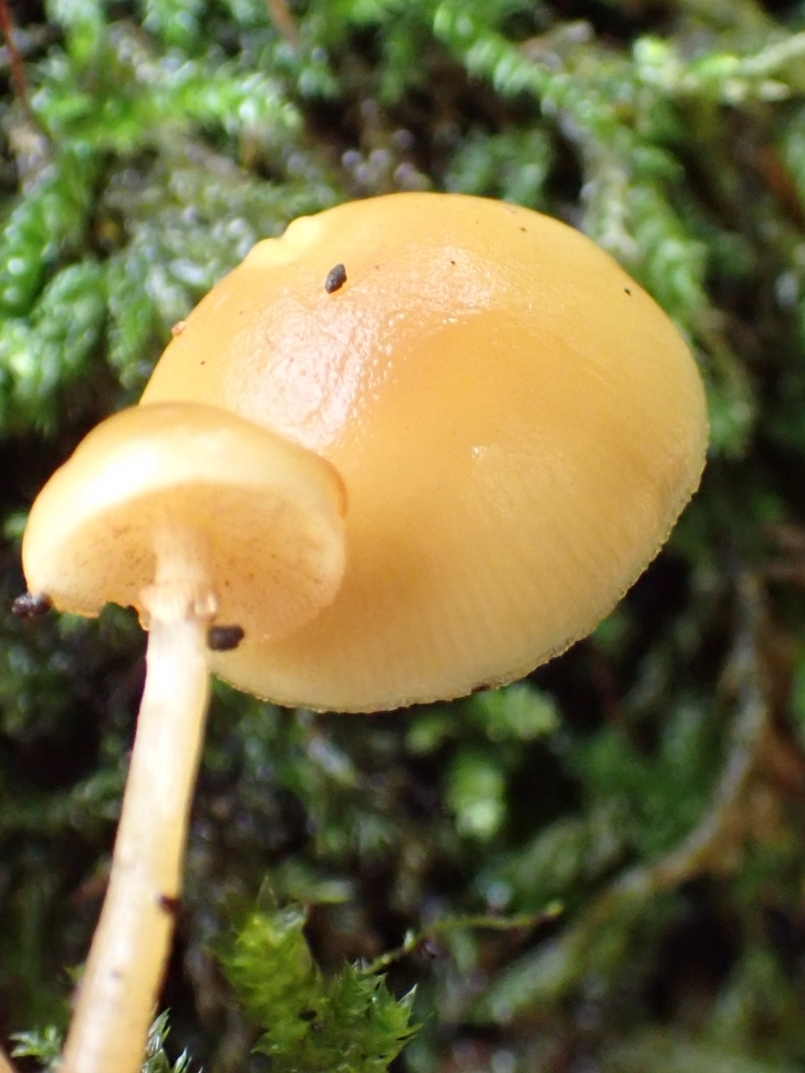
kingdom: Fungi
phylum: Basidiomycota
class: Agaricomycetes
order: Agaricales
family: Hymenogastraceae
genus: Galerina
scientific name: Galerina marginata
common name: randbæltet hjelmhat
